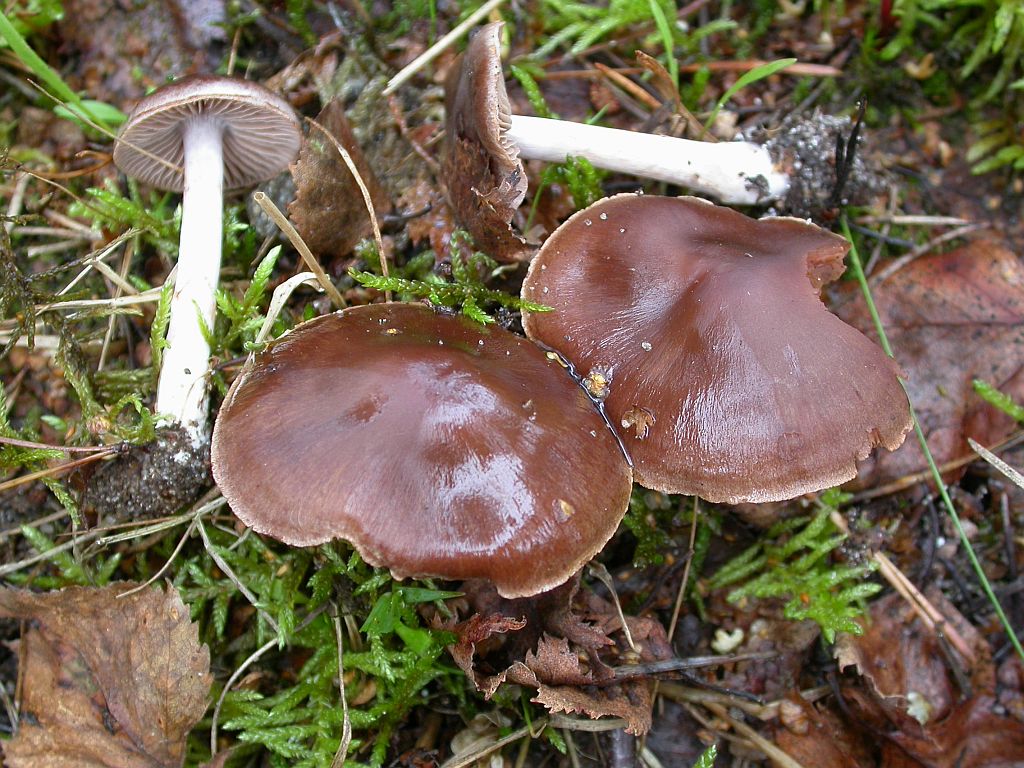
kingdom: Fungi
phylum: Basidiomycota
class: Agaricomycetes
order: Agaricales
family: Cortinariaceae
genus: Cortinarius
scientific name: Cortinarius inconspicuus
